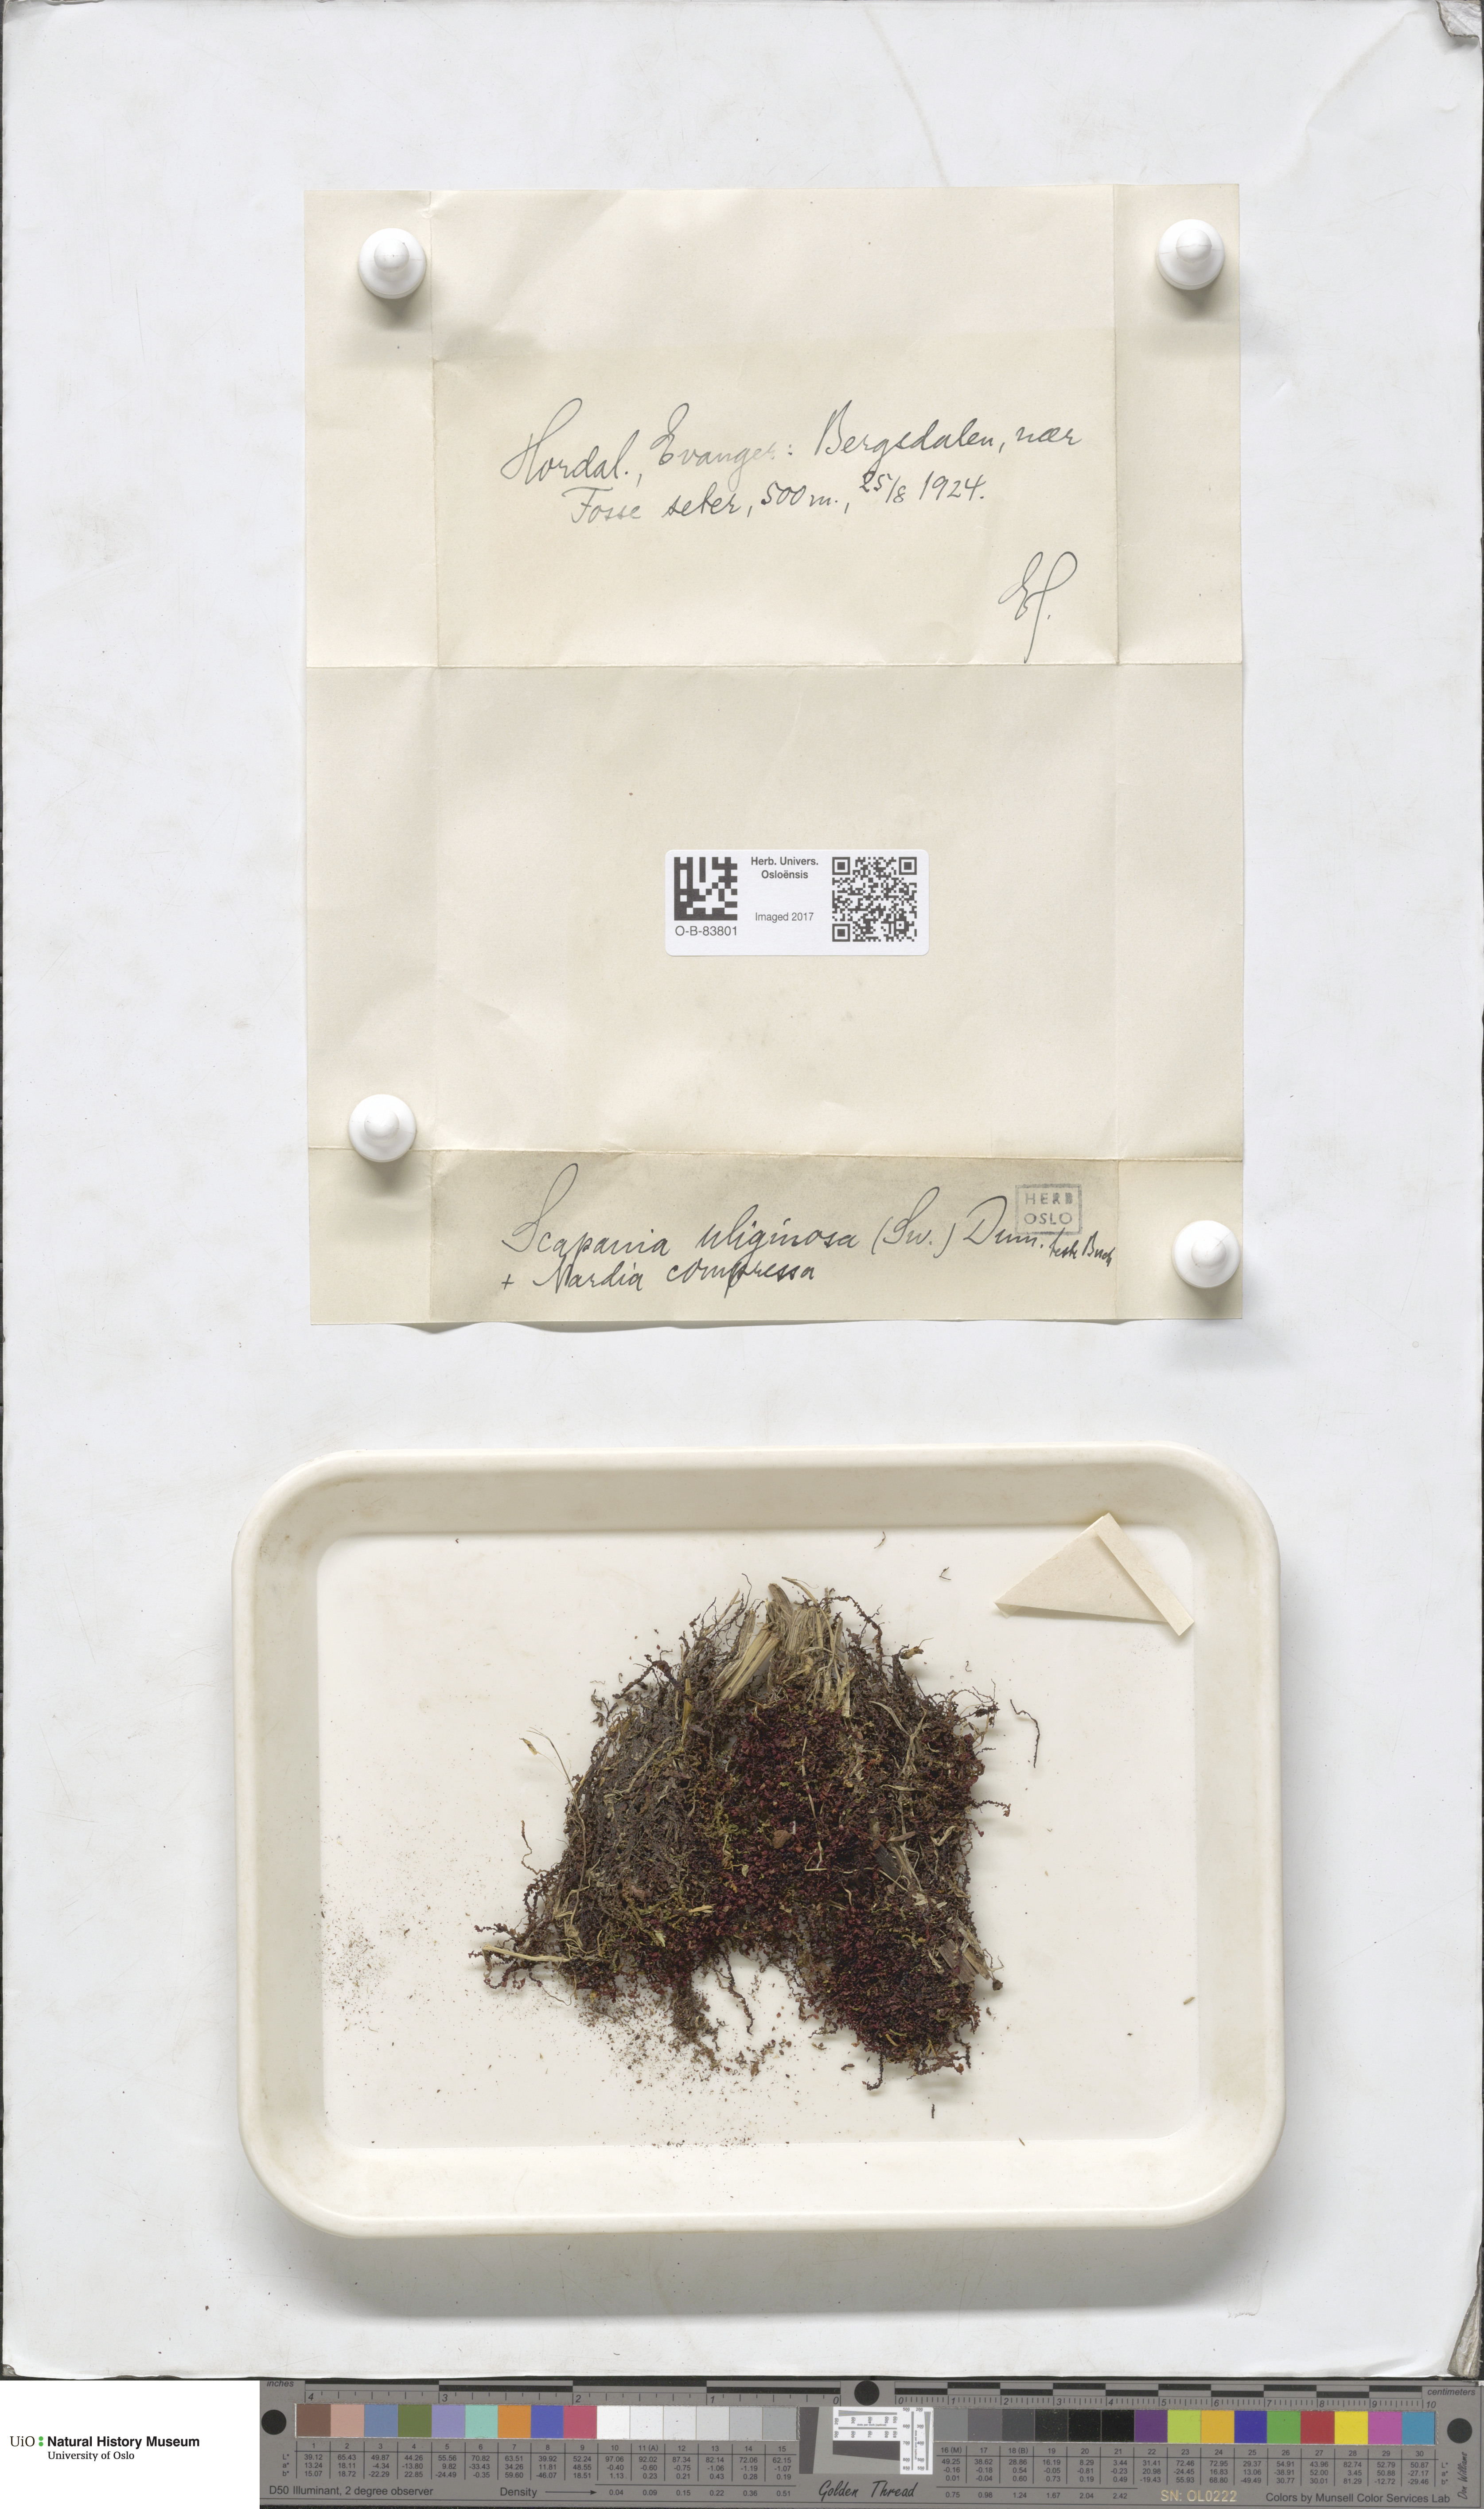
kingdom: Plantae
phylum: Marchantiophyta
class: Jungermanniopsida
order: Jungermanniales
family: Scapaniaceae
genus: Scapania
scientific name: Scapania uliginosa
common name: Marsh earwort
